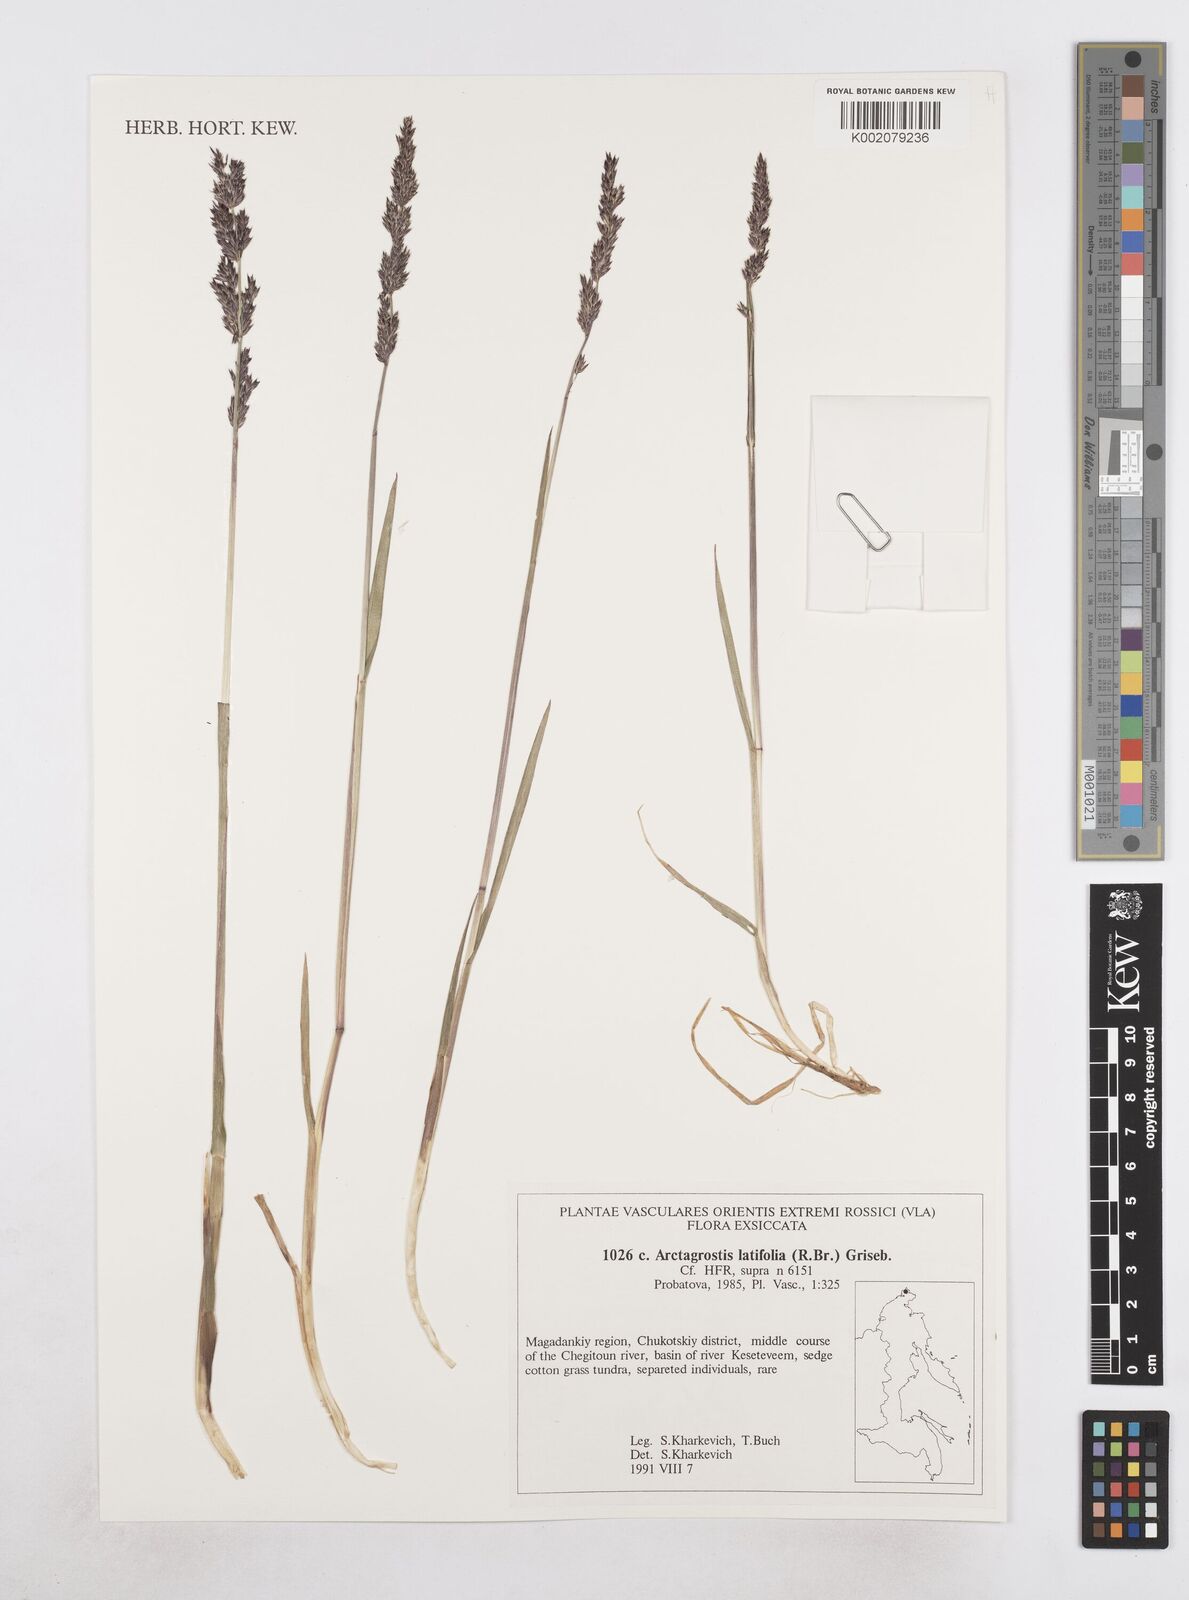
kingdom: Plantae
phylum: Tracheophyta
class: Liliopsida
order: Poales
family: Poaceae
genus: Arctagrostis
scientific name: Arctagrostis latifolia
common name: Arctic grass
